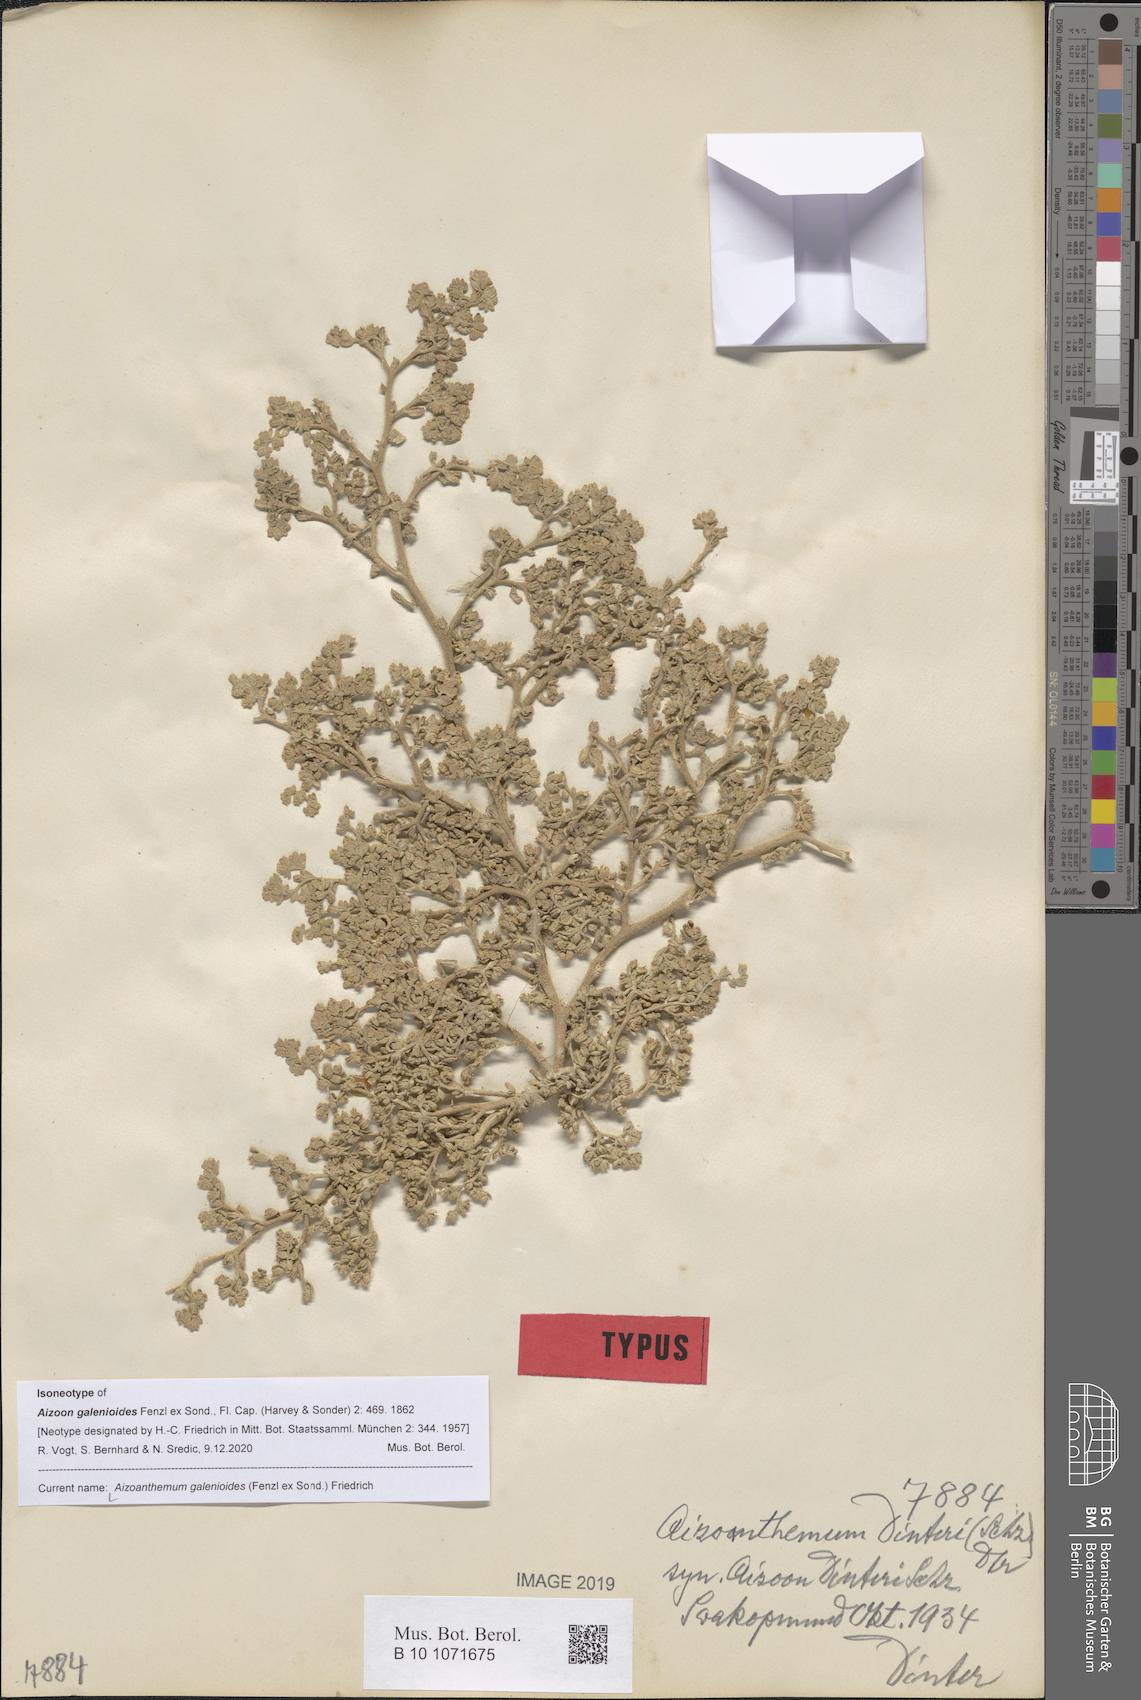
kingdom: Plantae
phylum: Tracheophyta
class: Magnoliopsida
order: Caryophyllales
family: Aizoaceae
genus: Aizoanthemum
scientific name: Aizoanthemum galenioides
